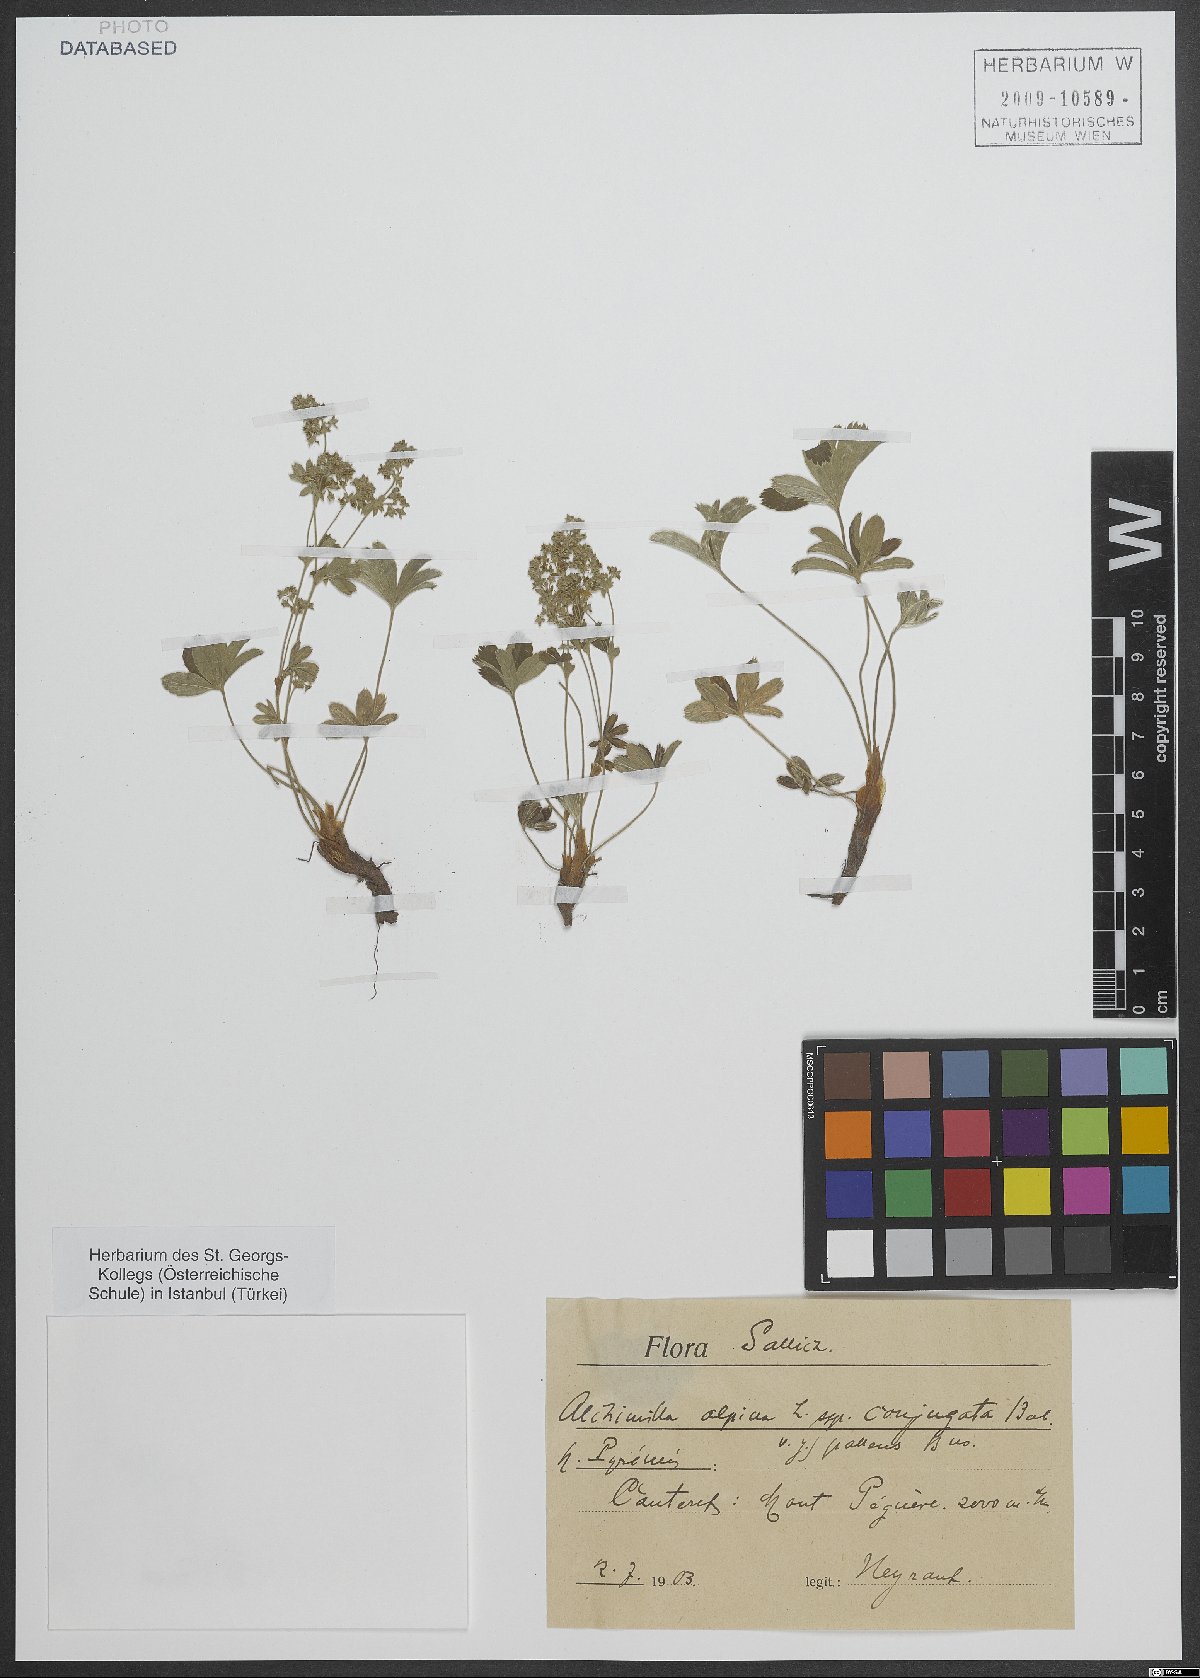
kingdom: Plantae
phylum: Tracheophyta
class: Magnoliopsida
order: Rosales
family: Rosaceae
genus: Alchemilla
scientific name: Alchemilla alpina
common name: Alpine lady's-mantle
